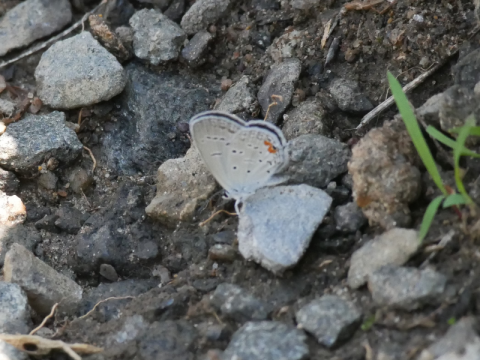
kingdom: Animalia
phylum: Arthropoda
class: Insecta
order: Lepidoptera
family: Lycaenidae
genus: Elkalyce
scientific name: Elkalyce comyntas
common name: Eastern Tailed-Blue
